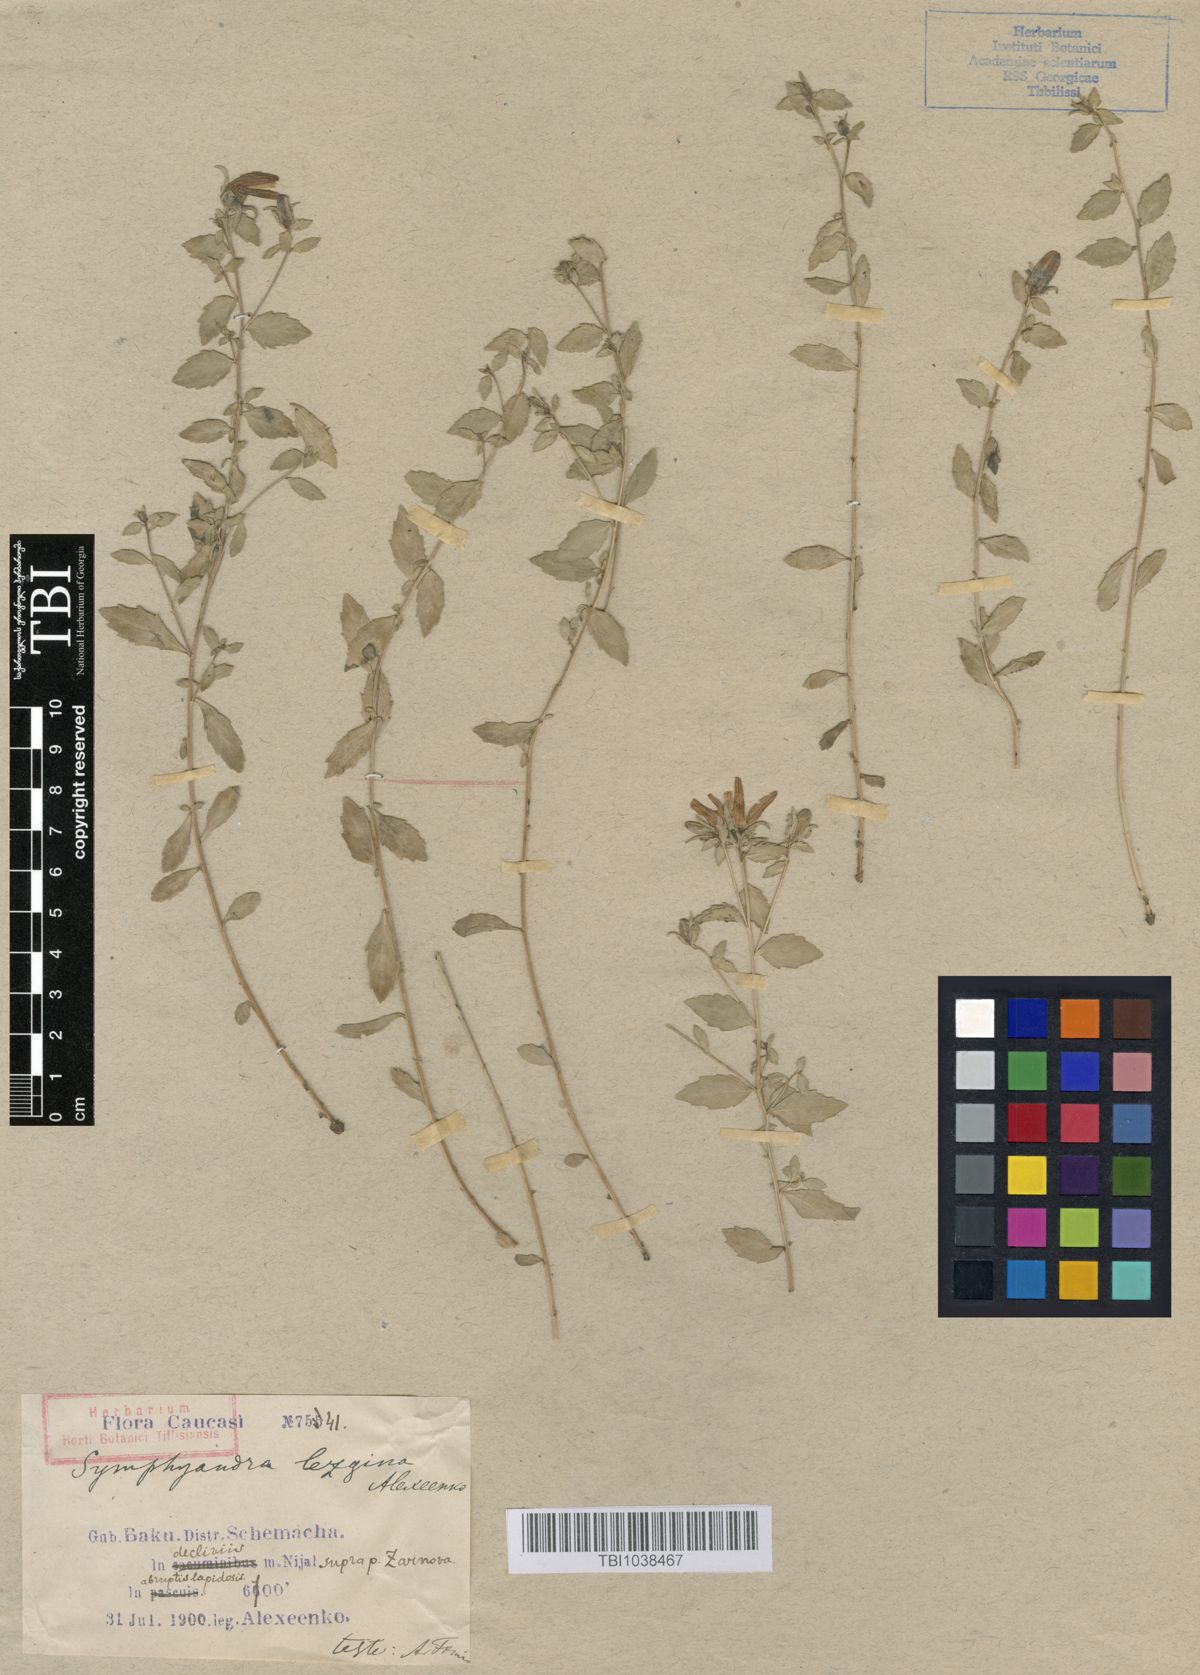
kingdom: Plantae
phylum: Tracheophyta
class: Magnoliopsida
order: Asterales
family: Campanulaceae
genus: Campanula
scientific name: Campanula lezgina
